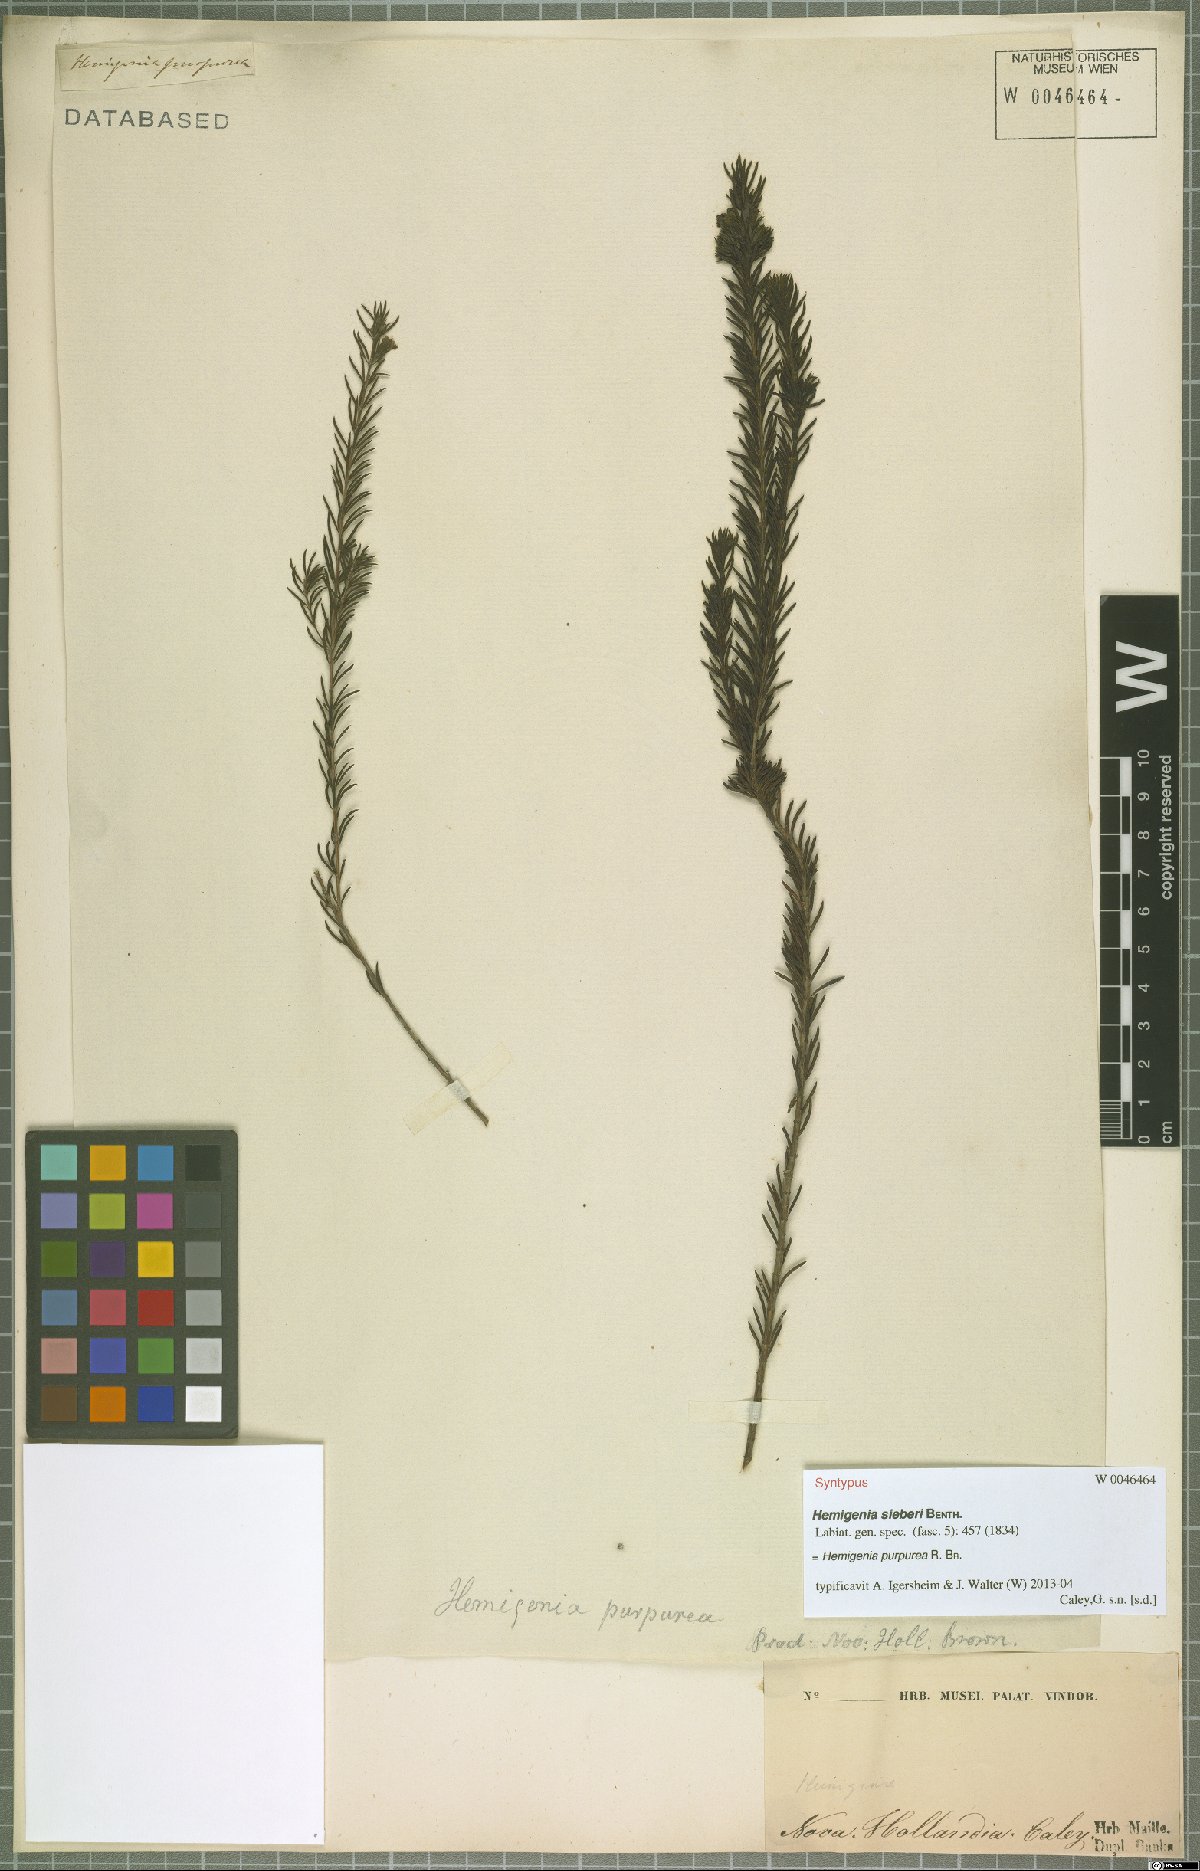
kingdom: Plantae
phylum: Tracheophyta
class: Magnoliopsida
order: Lamiales
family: Lamiaceae
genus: Hemigenia
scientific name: Hemigenia purpurea
